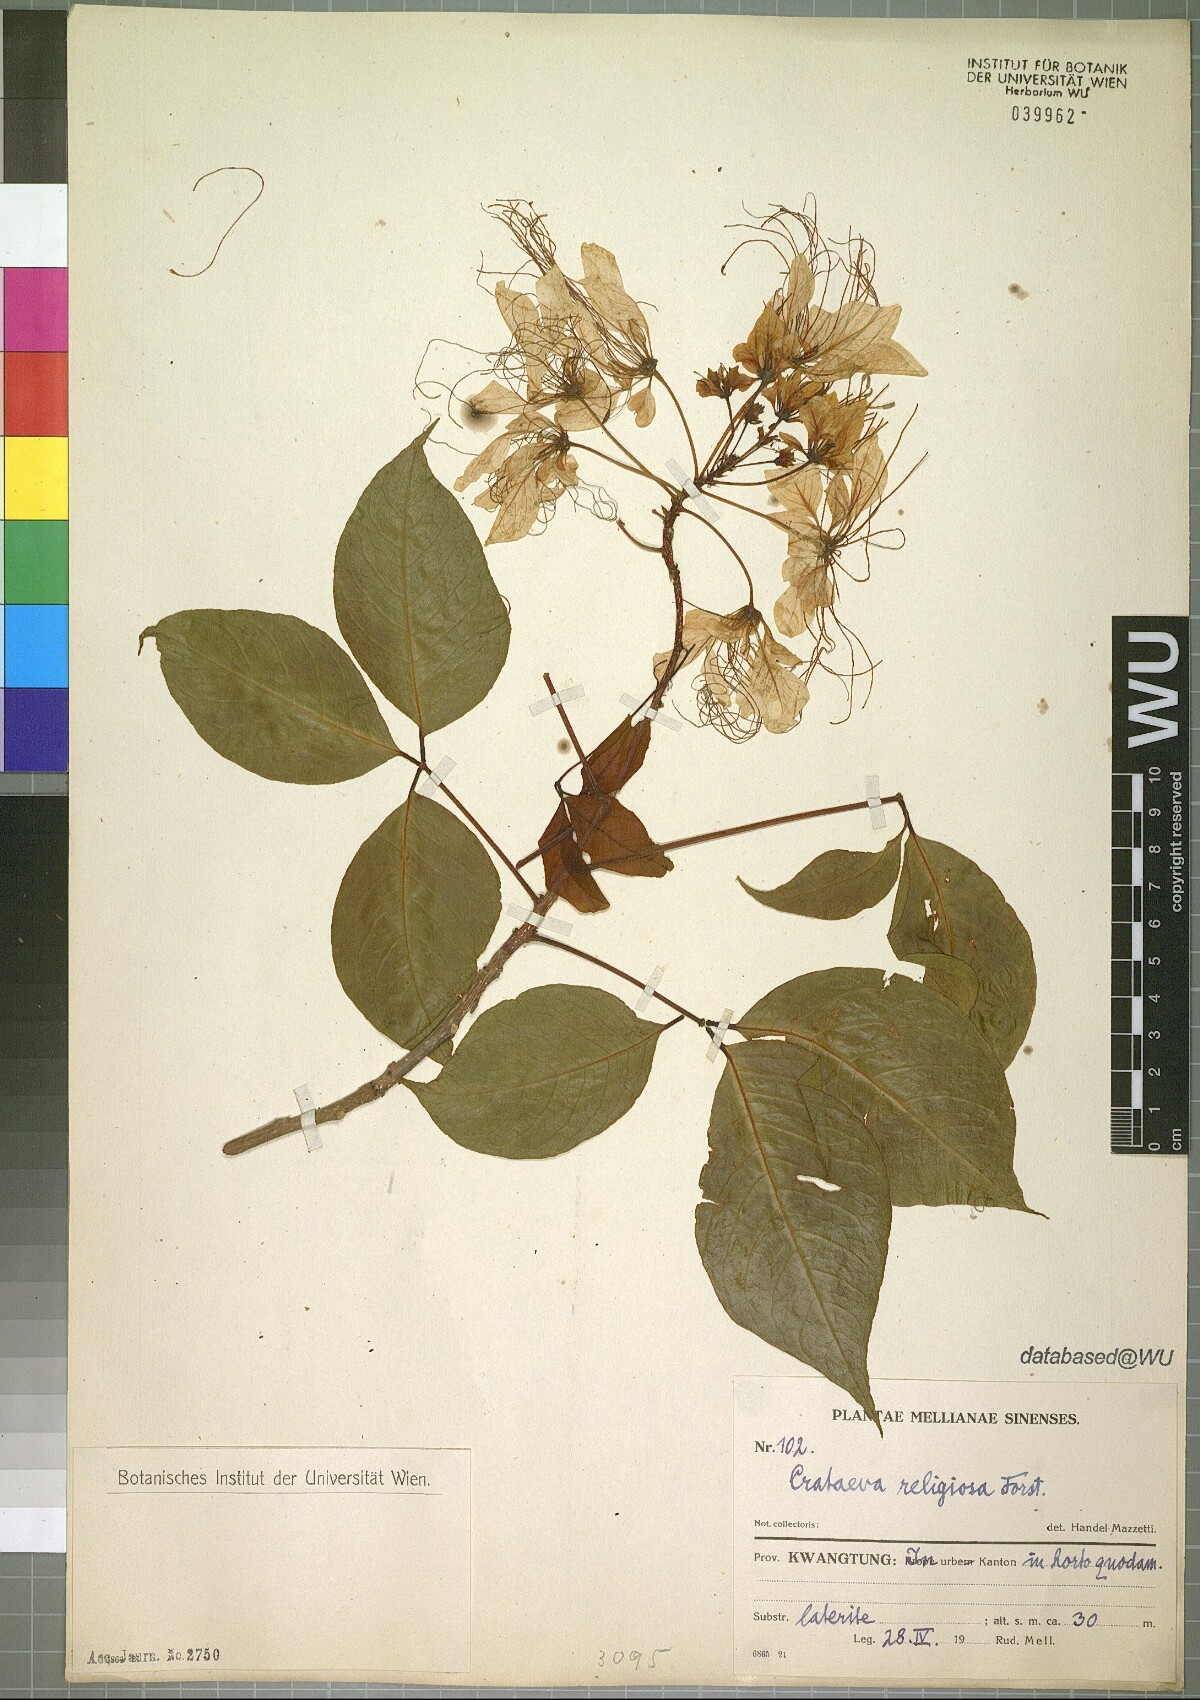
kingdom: Plantae
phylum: Tracheophyta
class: Magnoliopsida
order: Brassicales
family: Capparaceae
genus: Crateva
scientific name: Crateva religiosa
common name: March dalur
